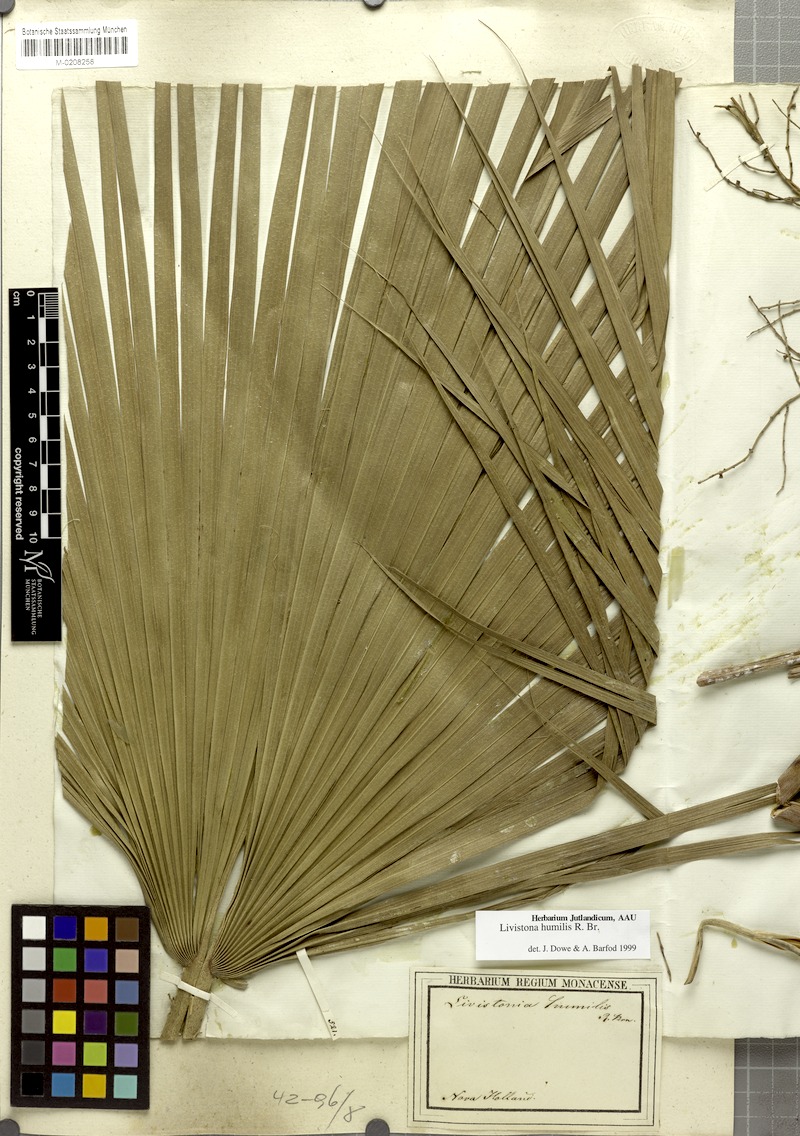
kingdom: Plantae
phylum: Tracheophyta
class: Liliopsida
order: Arecales
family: Arecaceae
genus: Livistona
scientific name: Livistona humilis
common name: Cabbage palm
